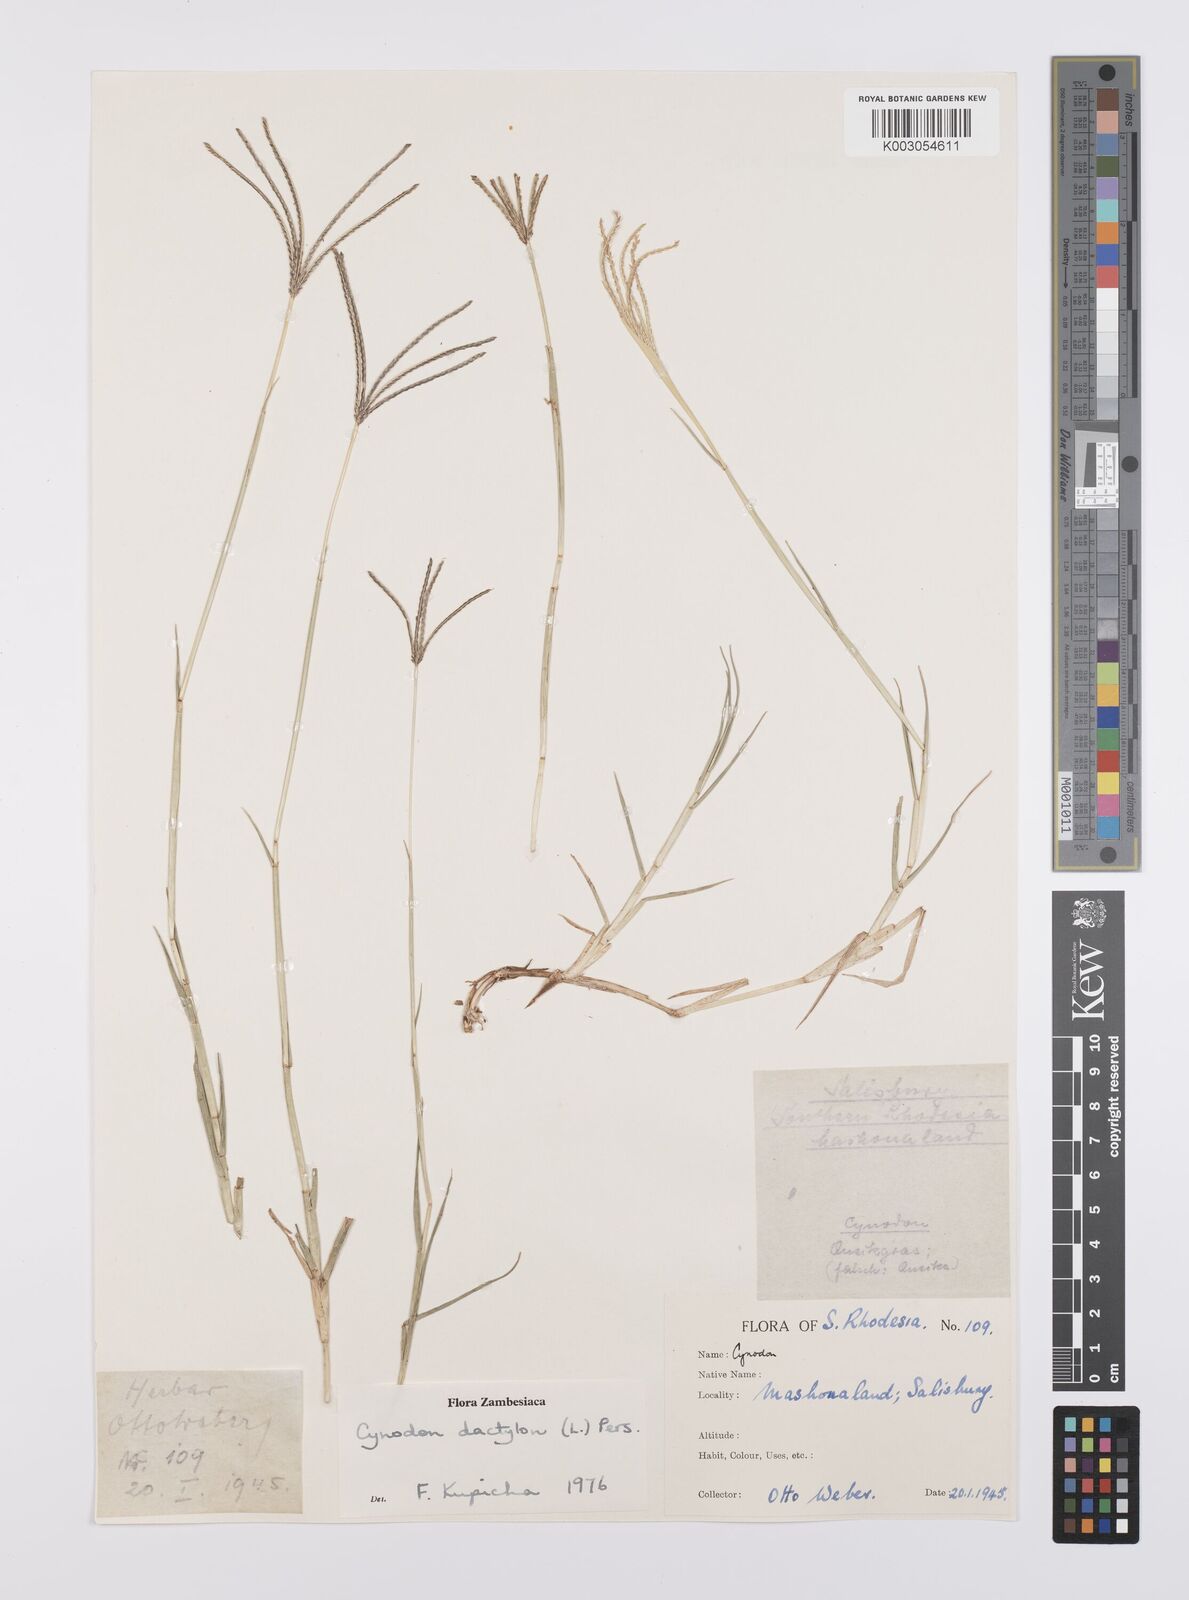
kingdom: Plantae
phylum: Tracheophyta
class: Liliopsida
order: Poales
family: Poaceae
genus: Cynodon
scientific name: Cynodon dactylon
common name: Bermuda grass
